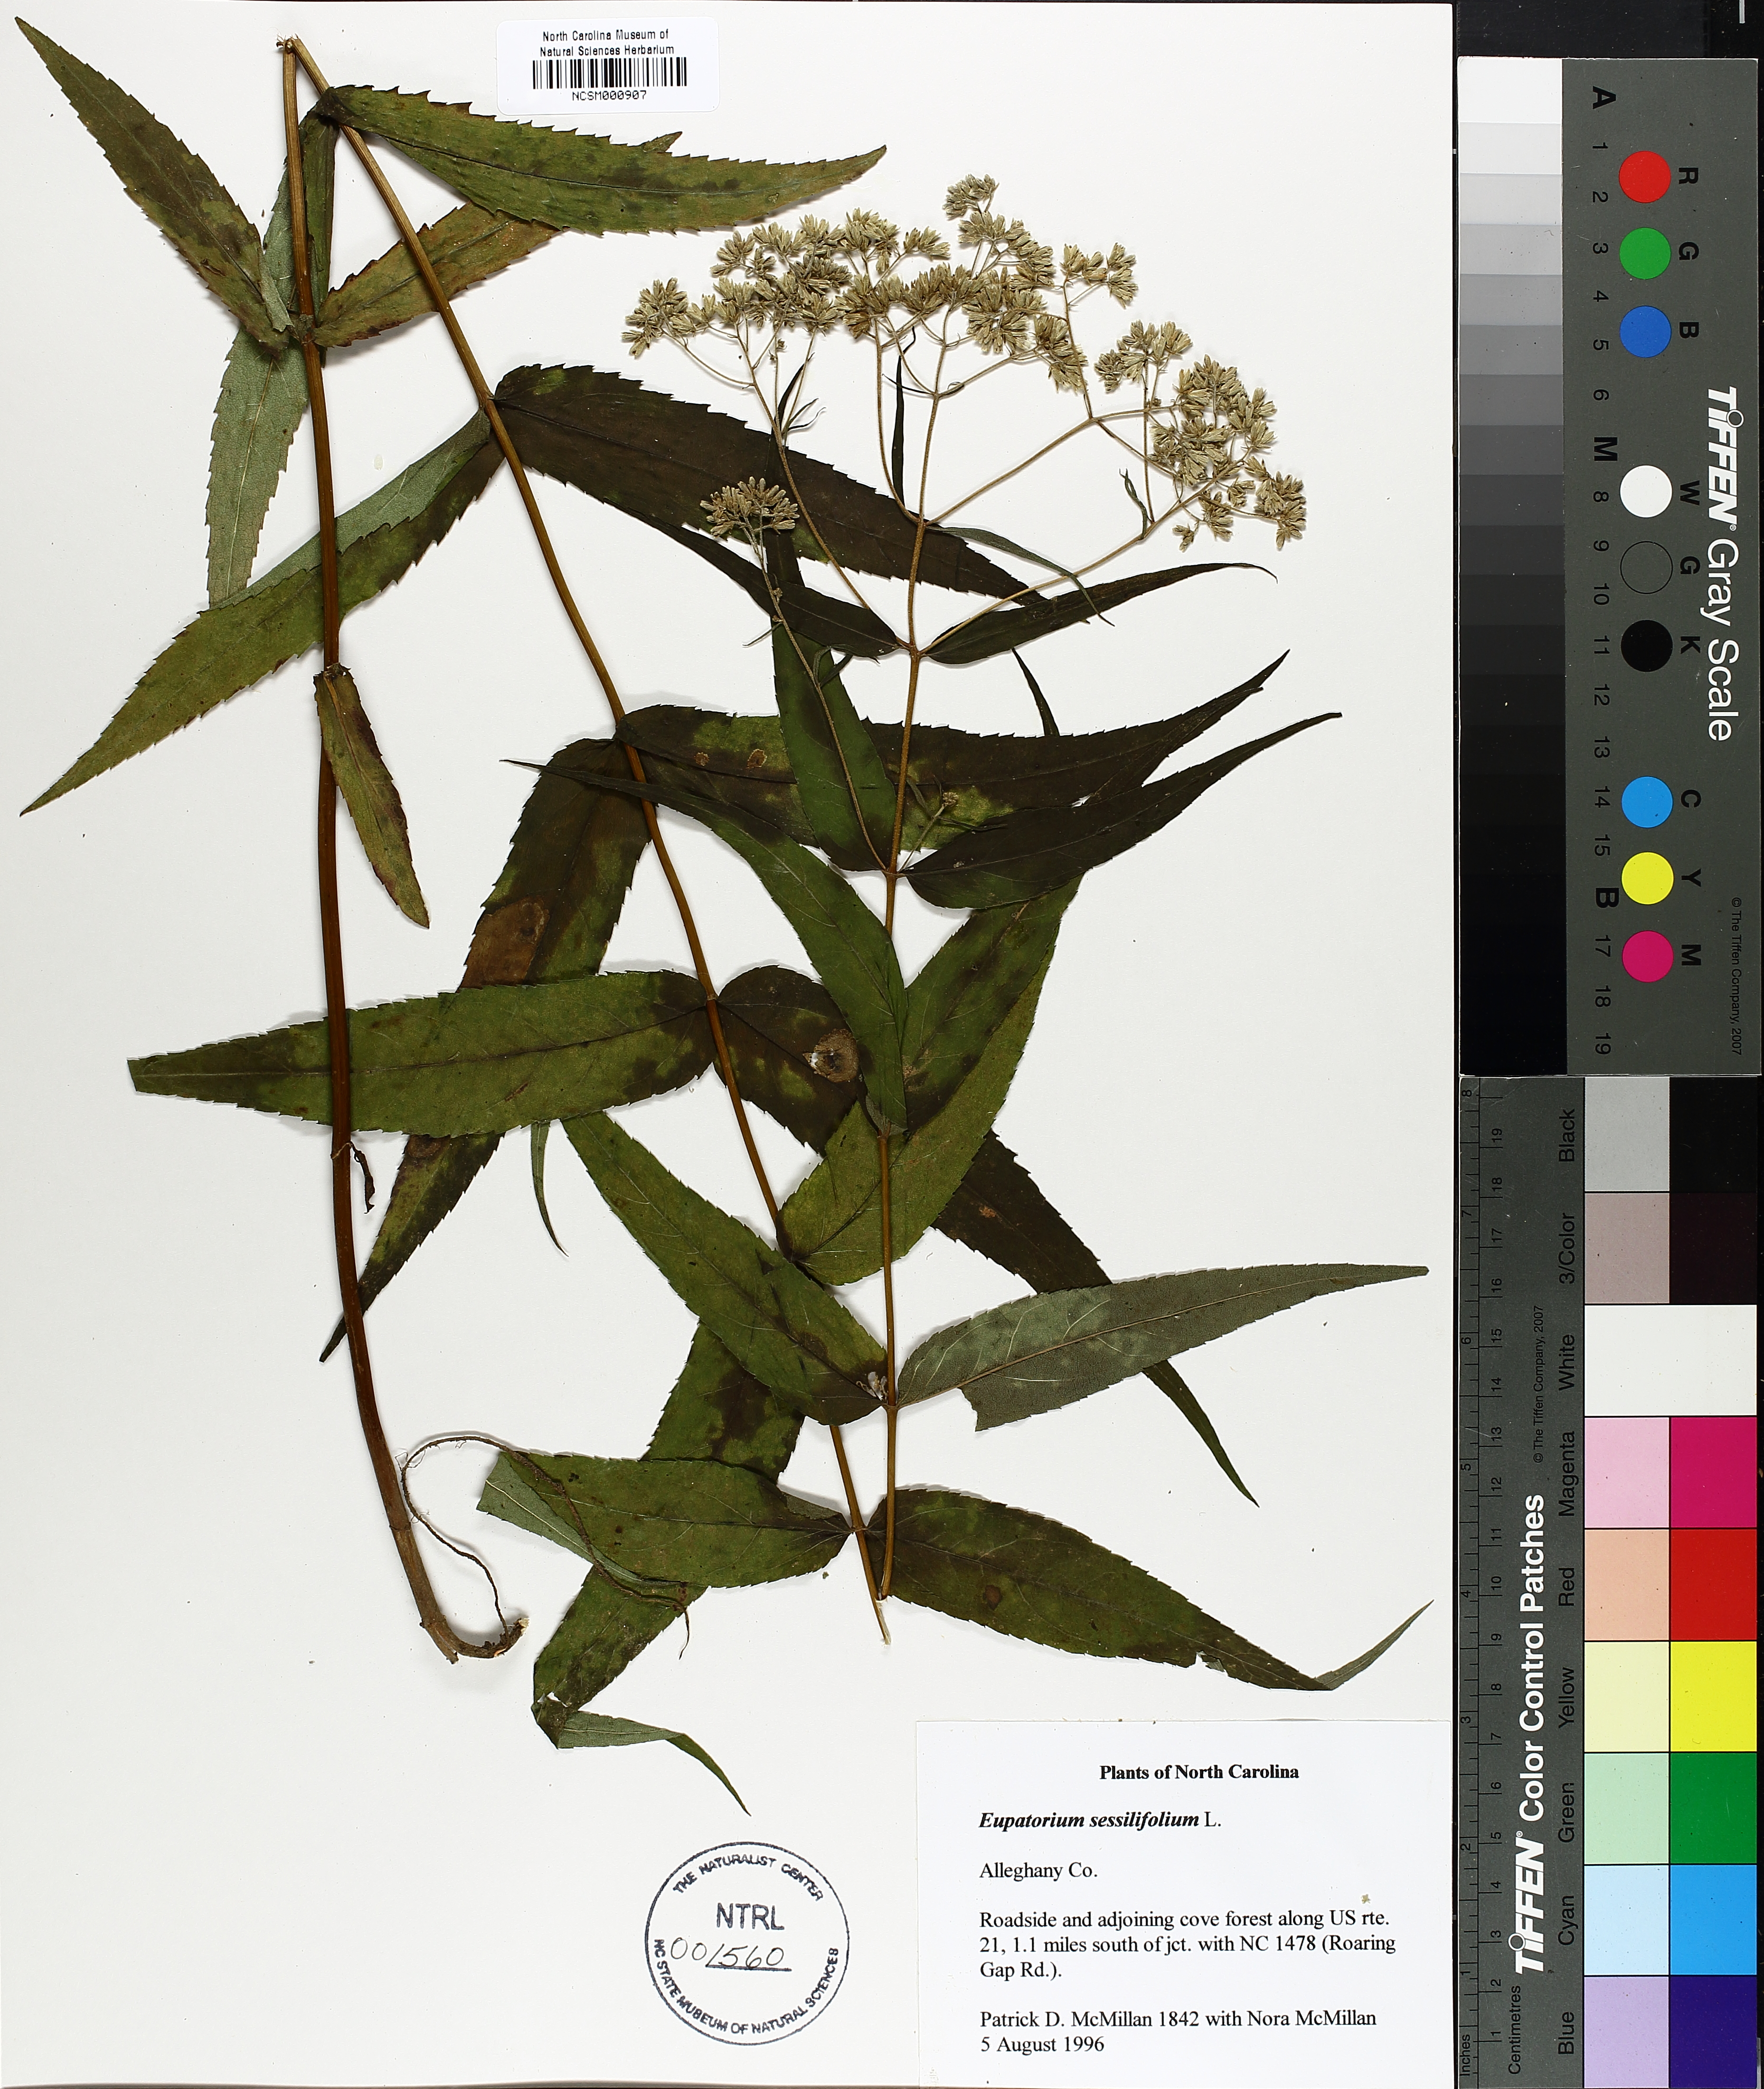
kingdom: Plantae
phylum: Tracheophyta
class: Magnoliopsida
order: Asterales
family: Asteraceae
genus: Eupatorium
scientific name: Eupatorium sessilifolium
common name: Upland boneset
